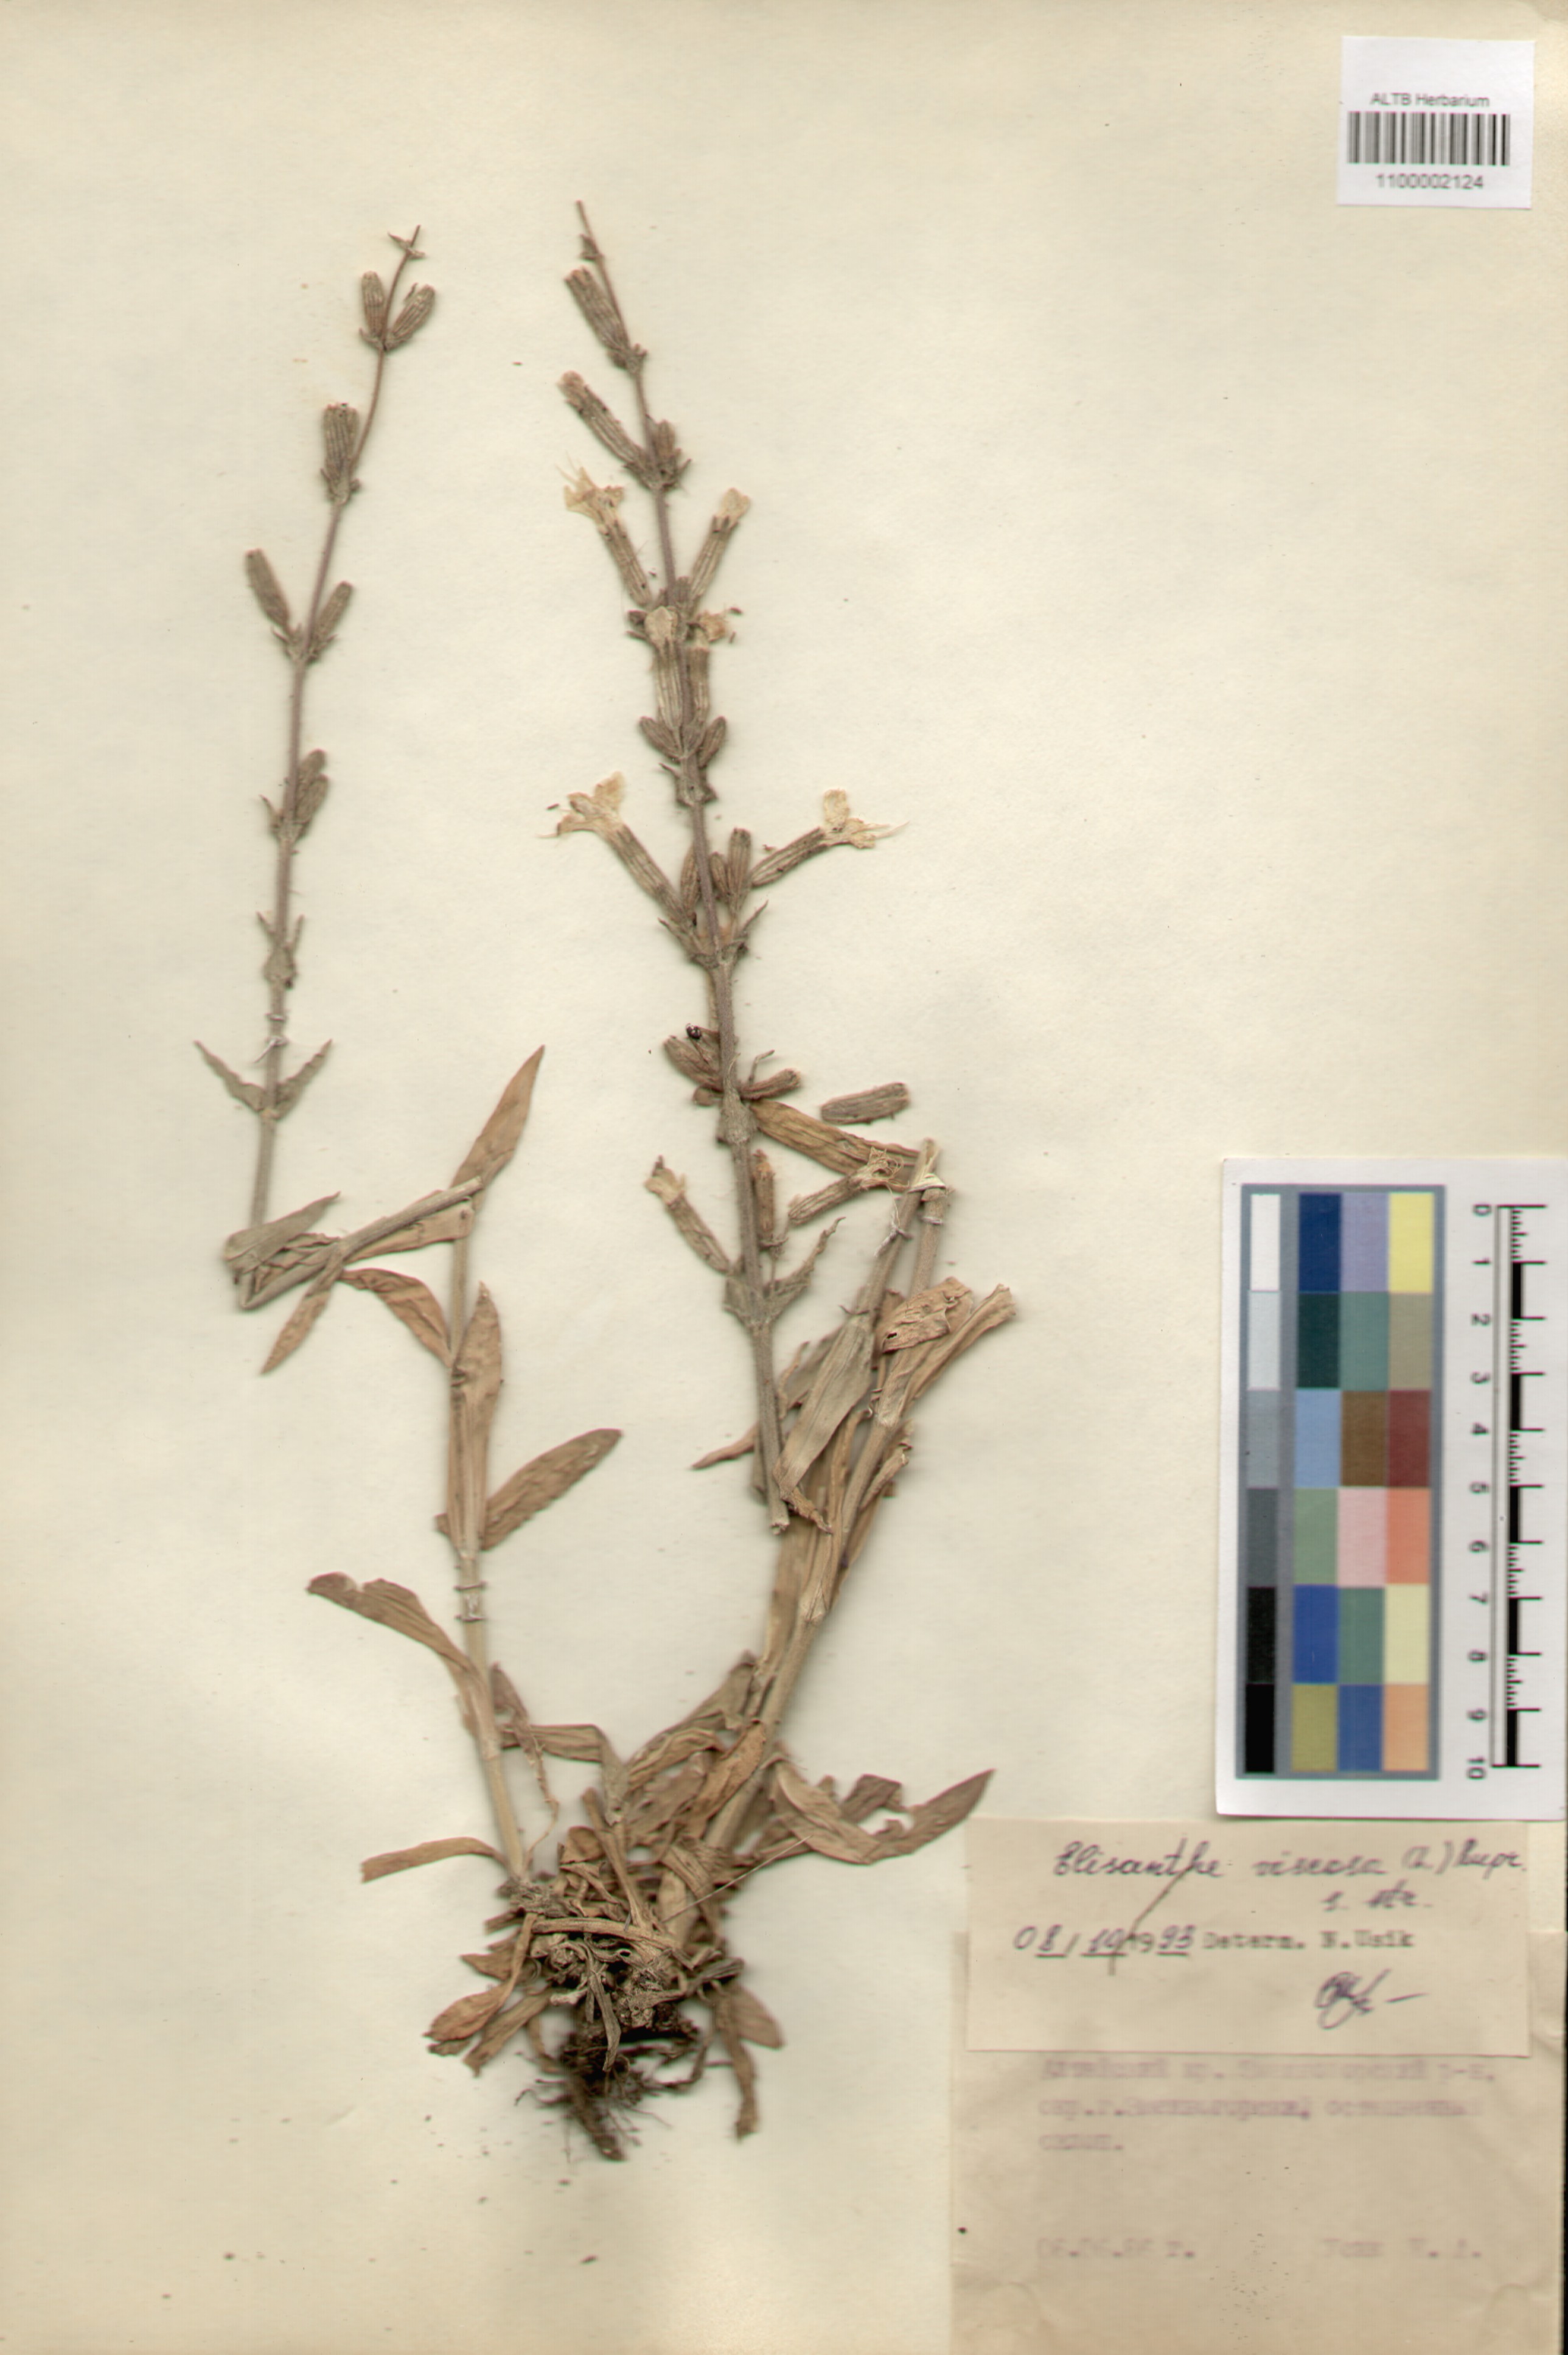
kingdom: Plantae
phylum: Tracheophyta
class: Magnoliopsida
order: Caryophyllales
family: Caryophyllaceae
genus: Silene
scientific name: Silene viscosa
